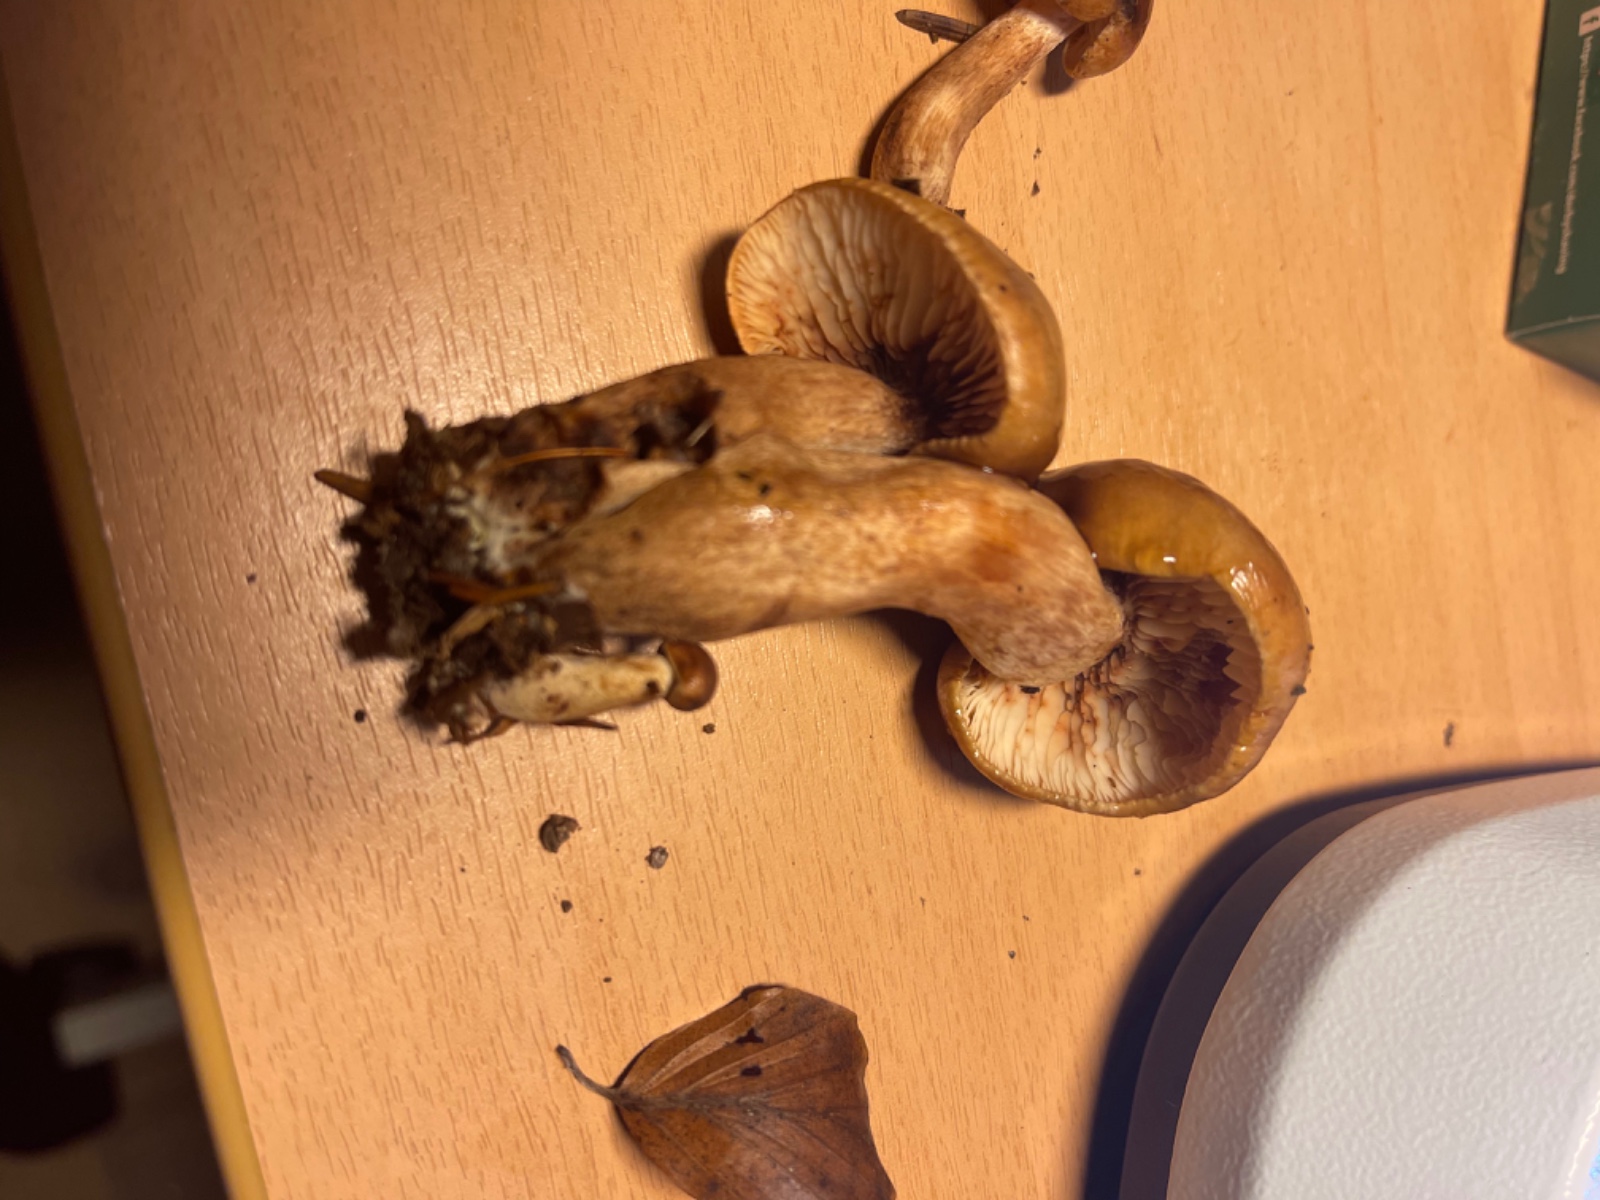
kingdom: Fungi
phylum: Basidiomycota
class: Agaricomycetes
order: Agaricales
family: Tricholomataceae
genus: Tricholoma
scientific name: Tricholoma ustale
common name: sveden ridderhat
